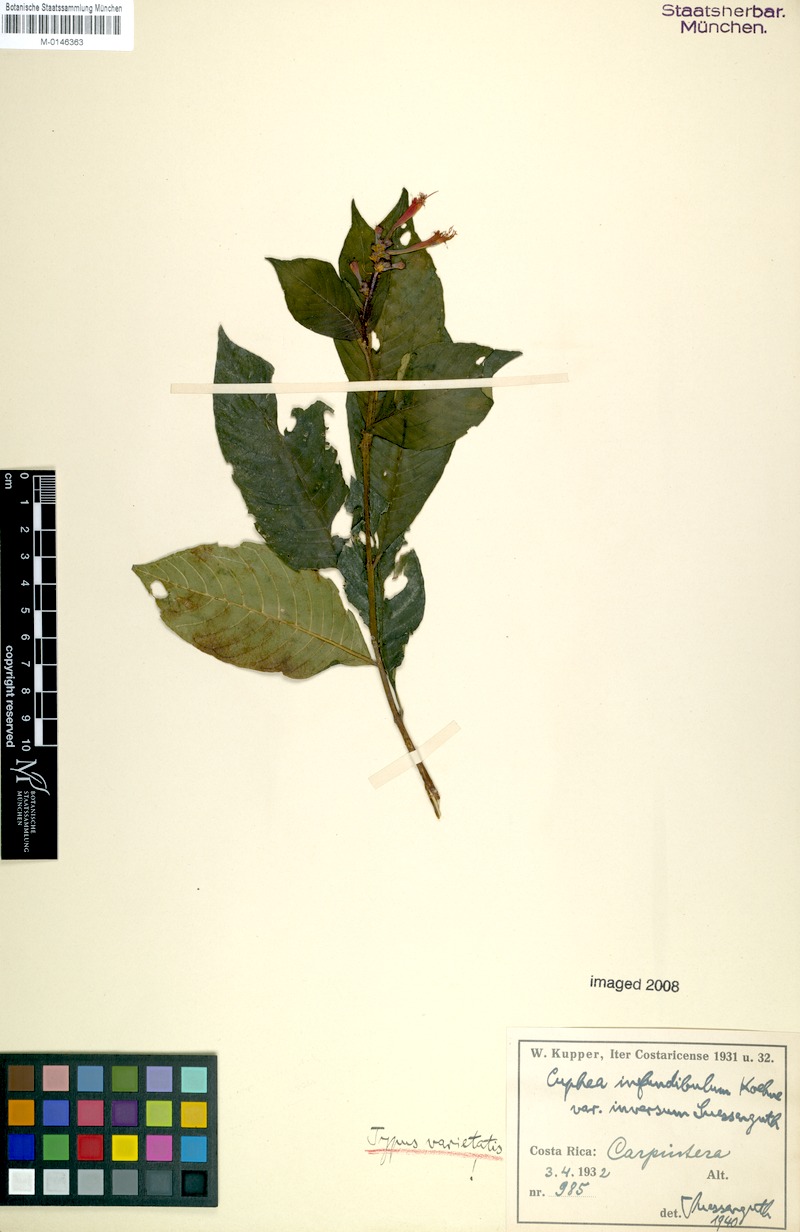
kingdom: Plantae
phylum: Tracheophyta
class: Magnoliopsida
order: Myrtales
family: Lythraceae
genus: Cuphea
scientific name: Cuphea appendiculata
